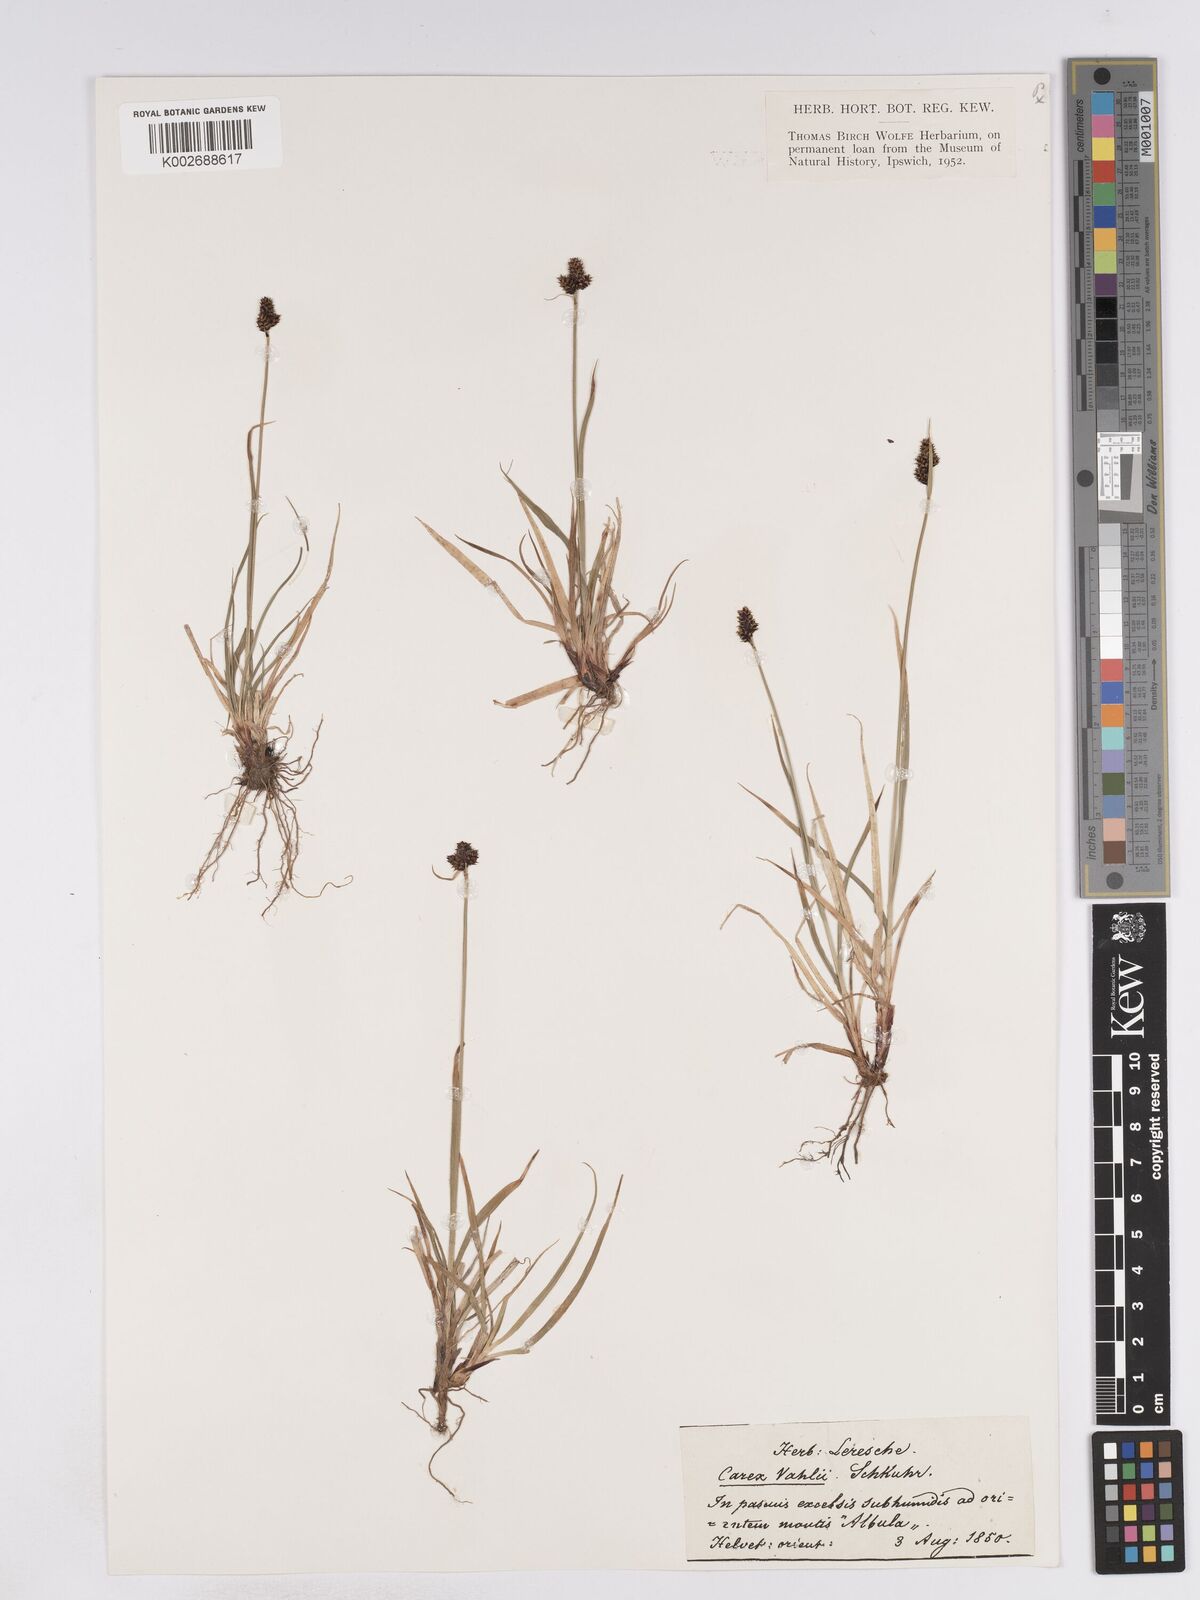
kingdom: Plantae
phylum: Tracheophyta
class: Liliopsida
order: Poales
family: Cyperaceae
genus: Carex
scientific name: Carex norvegica
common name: Close-headed alpine-sedge
